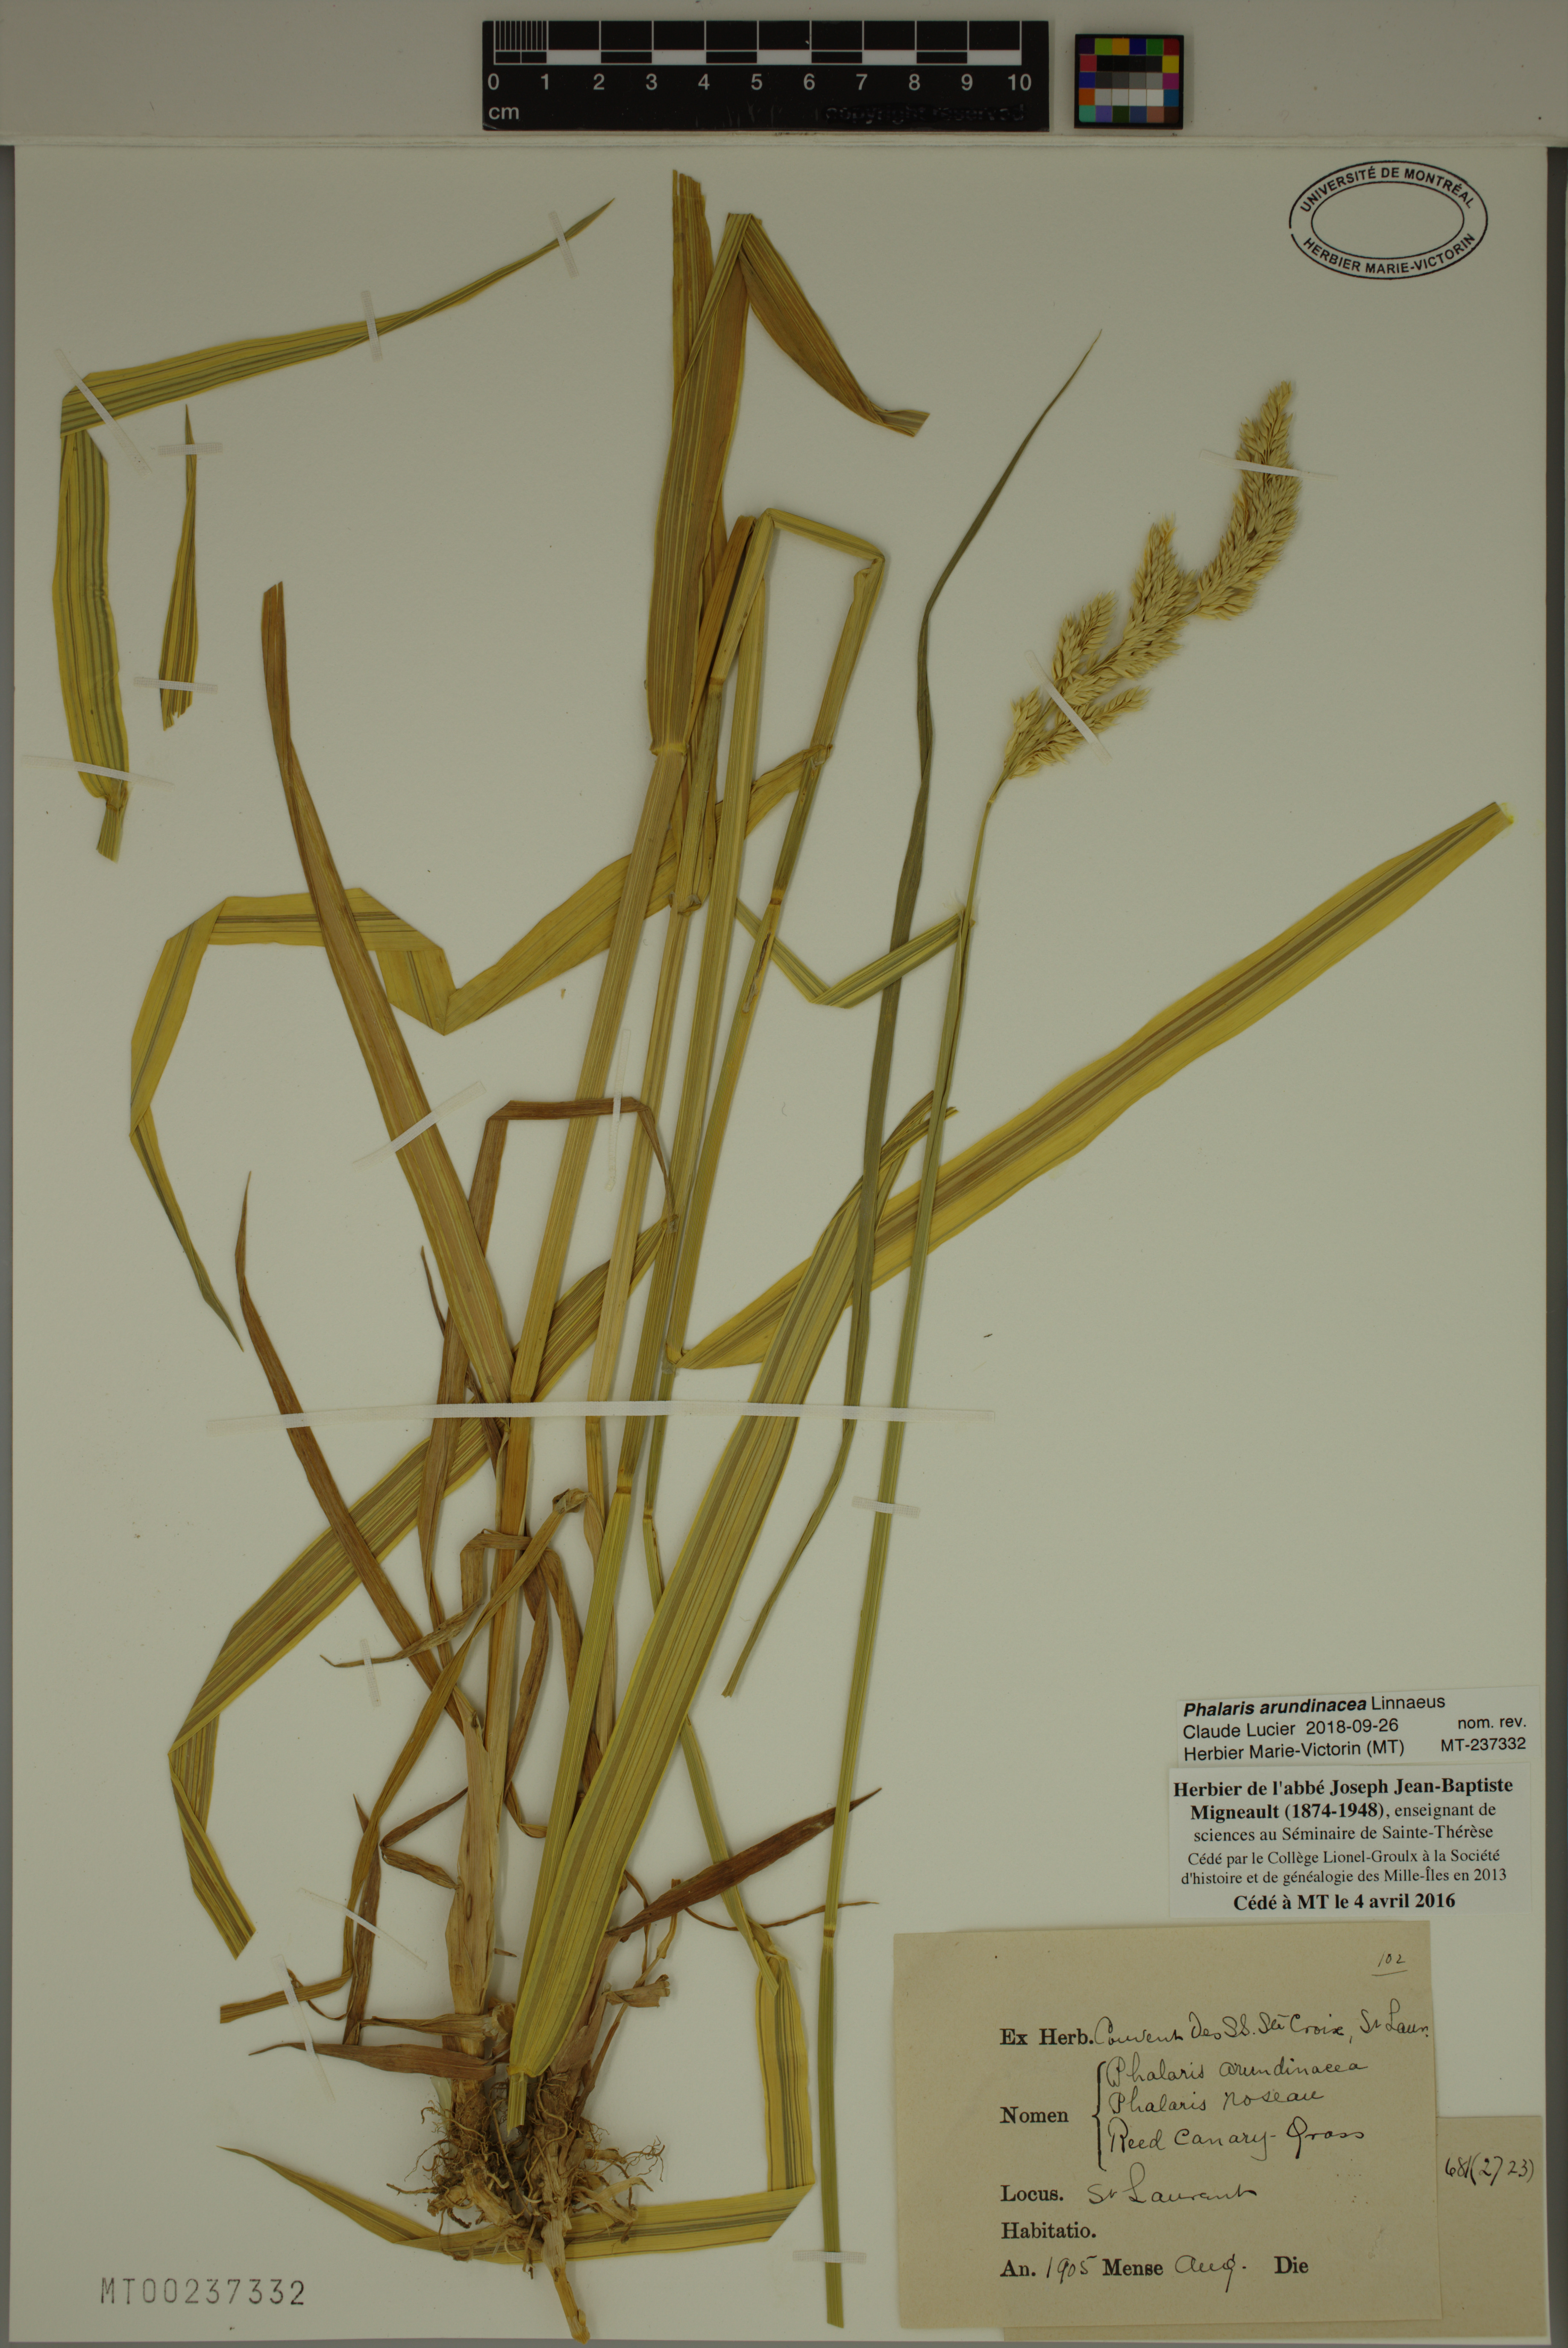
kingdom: Plantae
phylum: Tracheophyta
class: Liliopsida
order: Poales
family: Poaceae
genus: Phalaris
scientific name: Phalaris arundinacea
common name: Reed canary-grass
